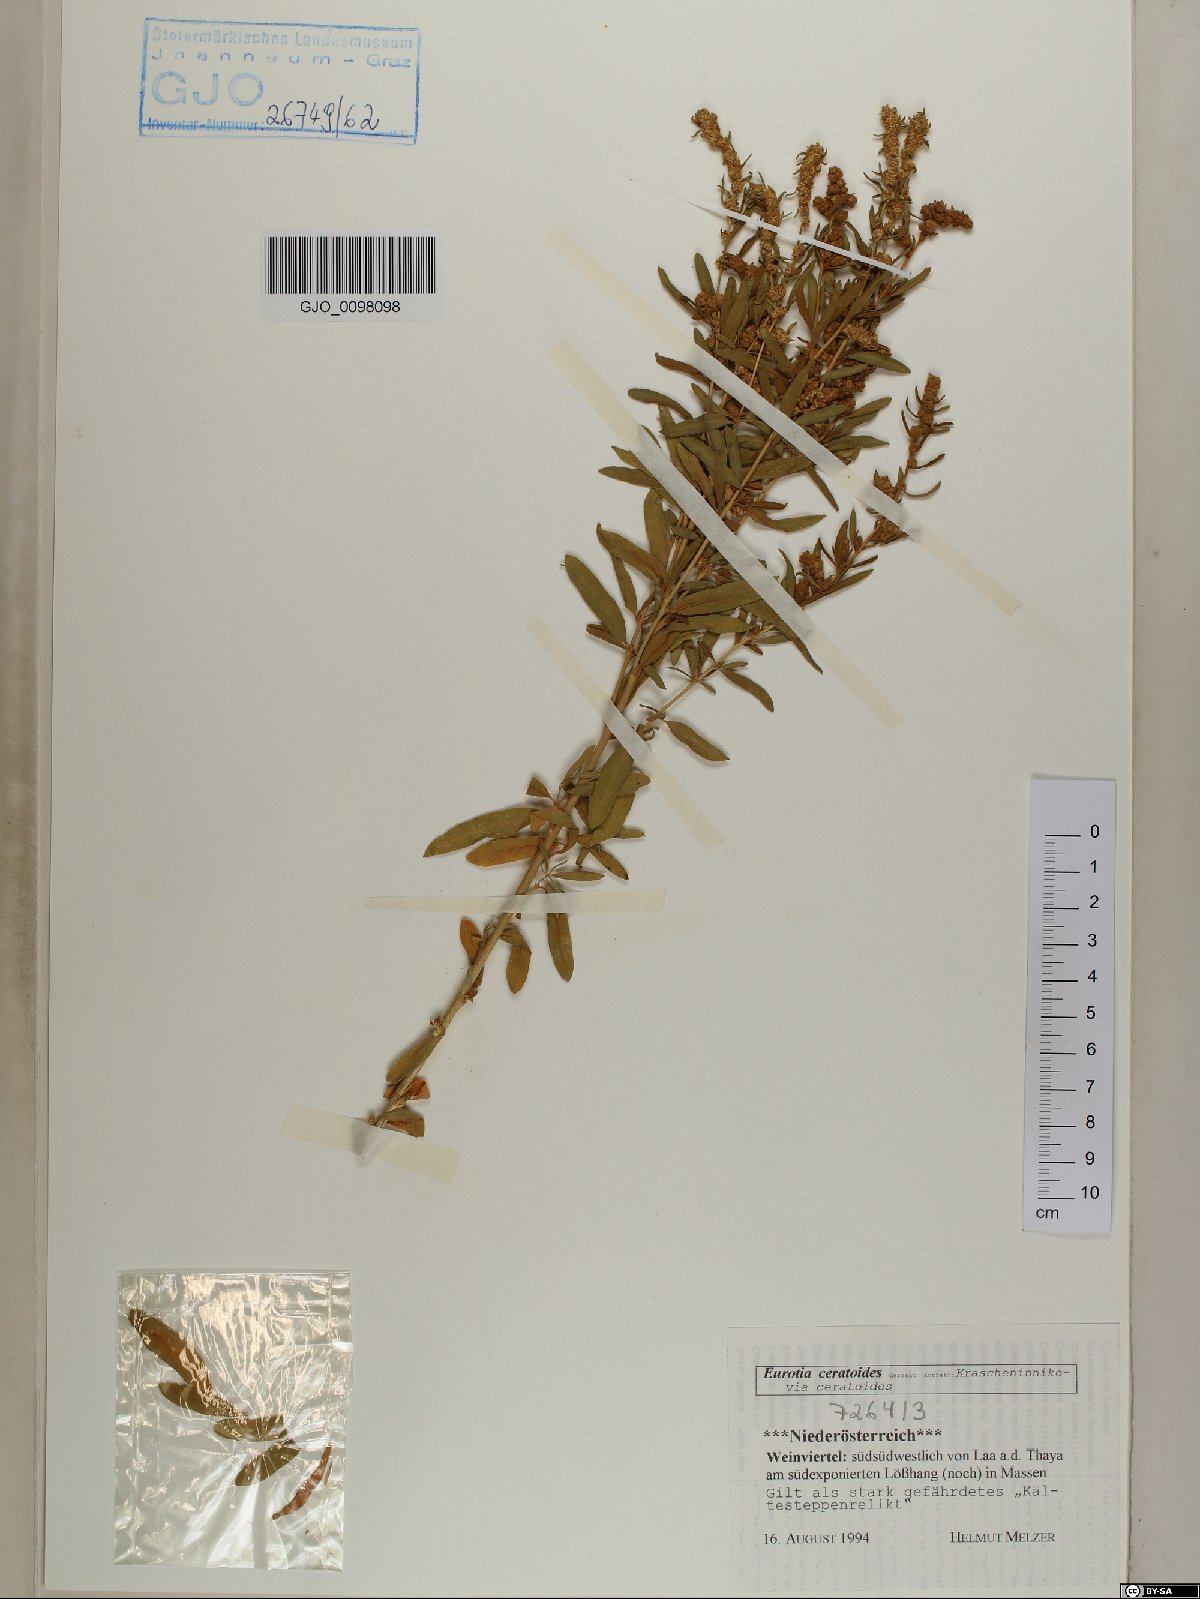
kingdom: Plantae
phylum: Tracheophyta
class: Magnoliopsida
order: Caryophyllales
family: Amaranthaceae
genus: Krascheninnikovia
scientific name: Krascheninnikovia ceratoides
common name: Pamirian winterfat
